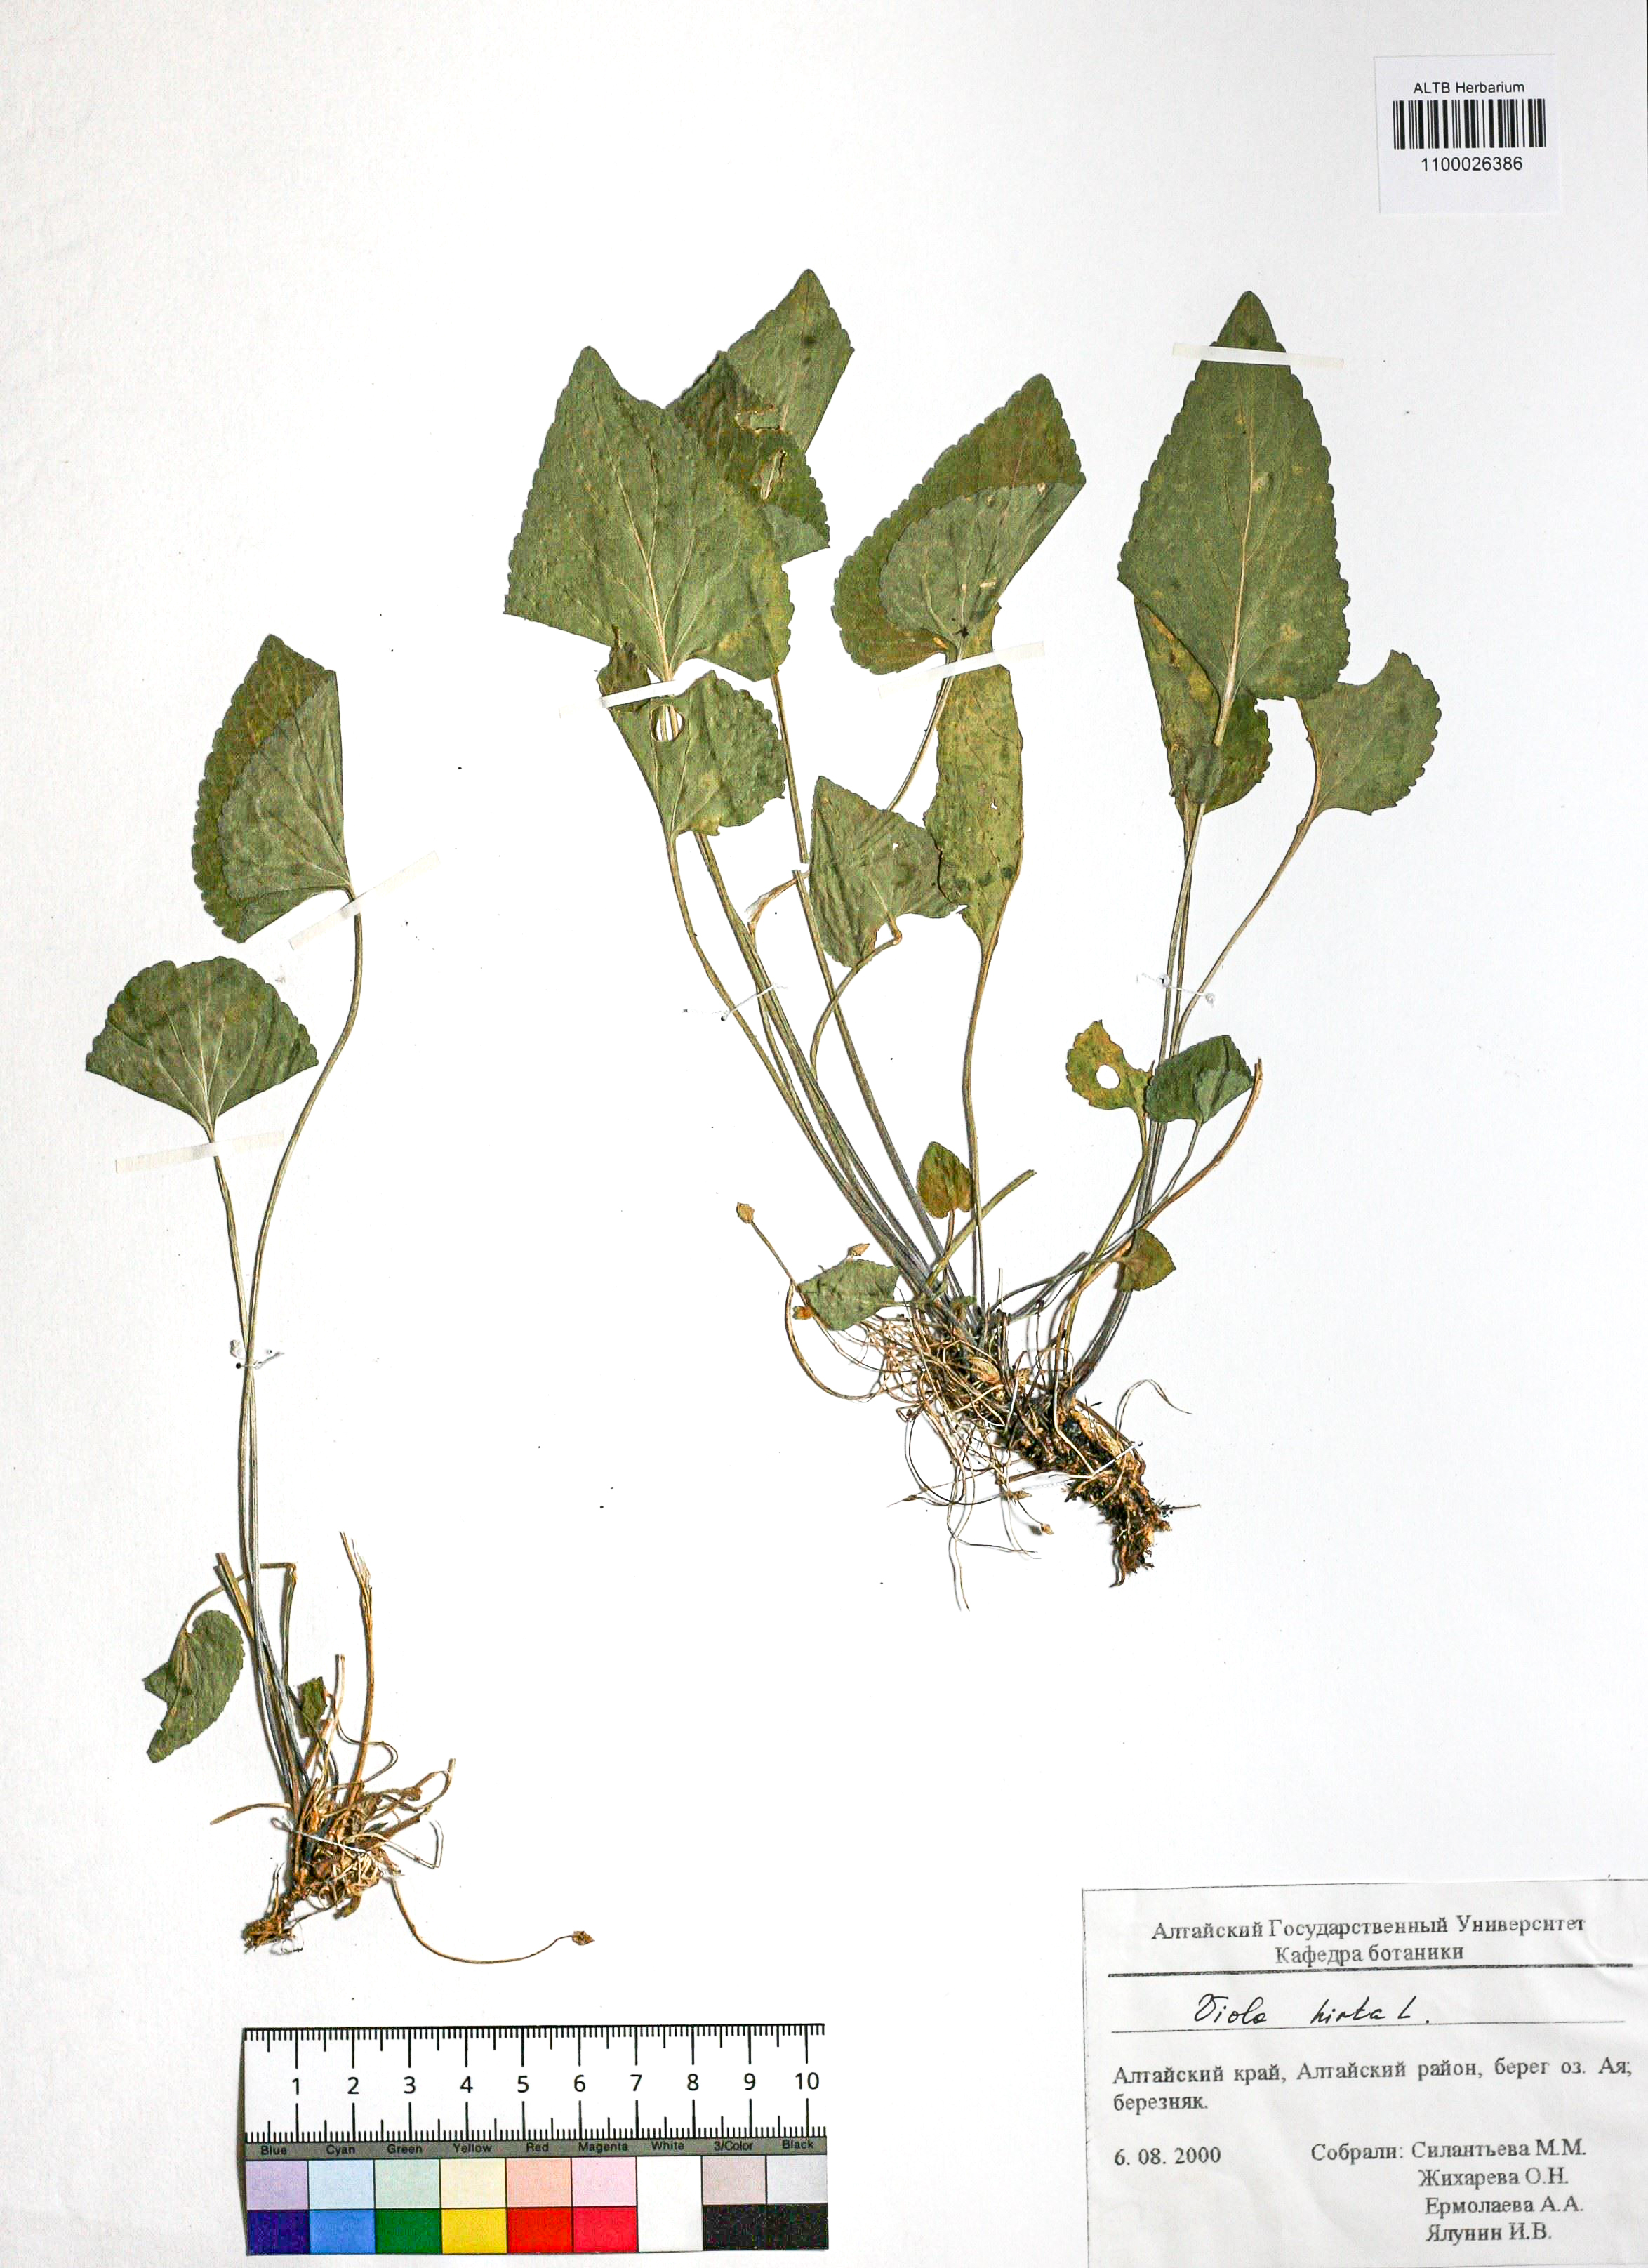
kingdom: Plantae
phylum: Tracheophyta
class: Magnoliopsida
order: Malpighiales
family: Violaceae
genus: Viola
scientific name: Viola hirta
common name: Hairy violet
